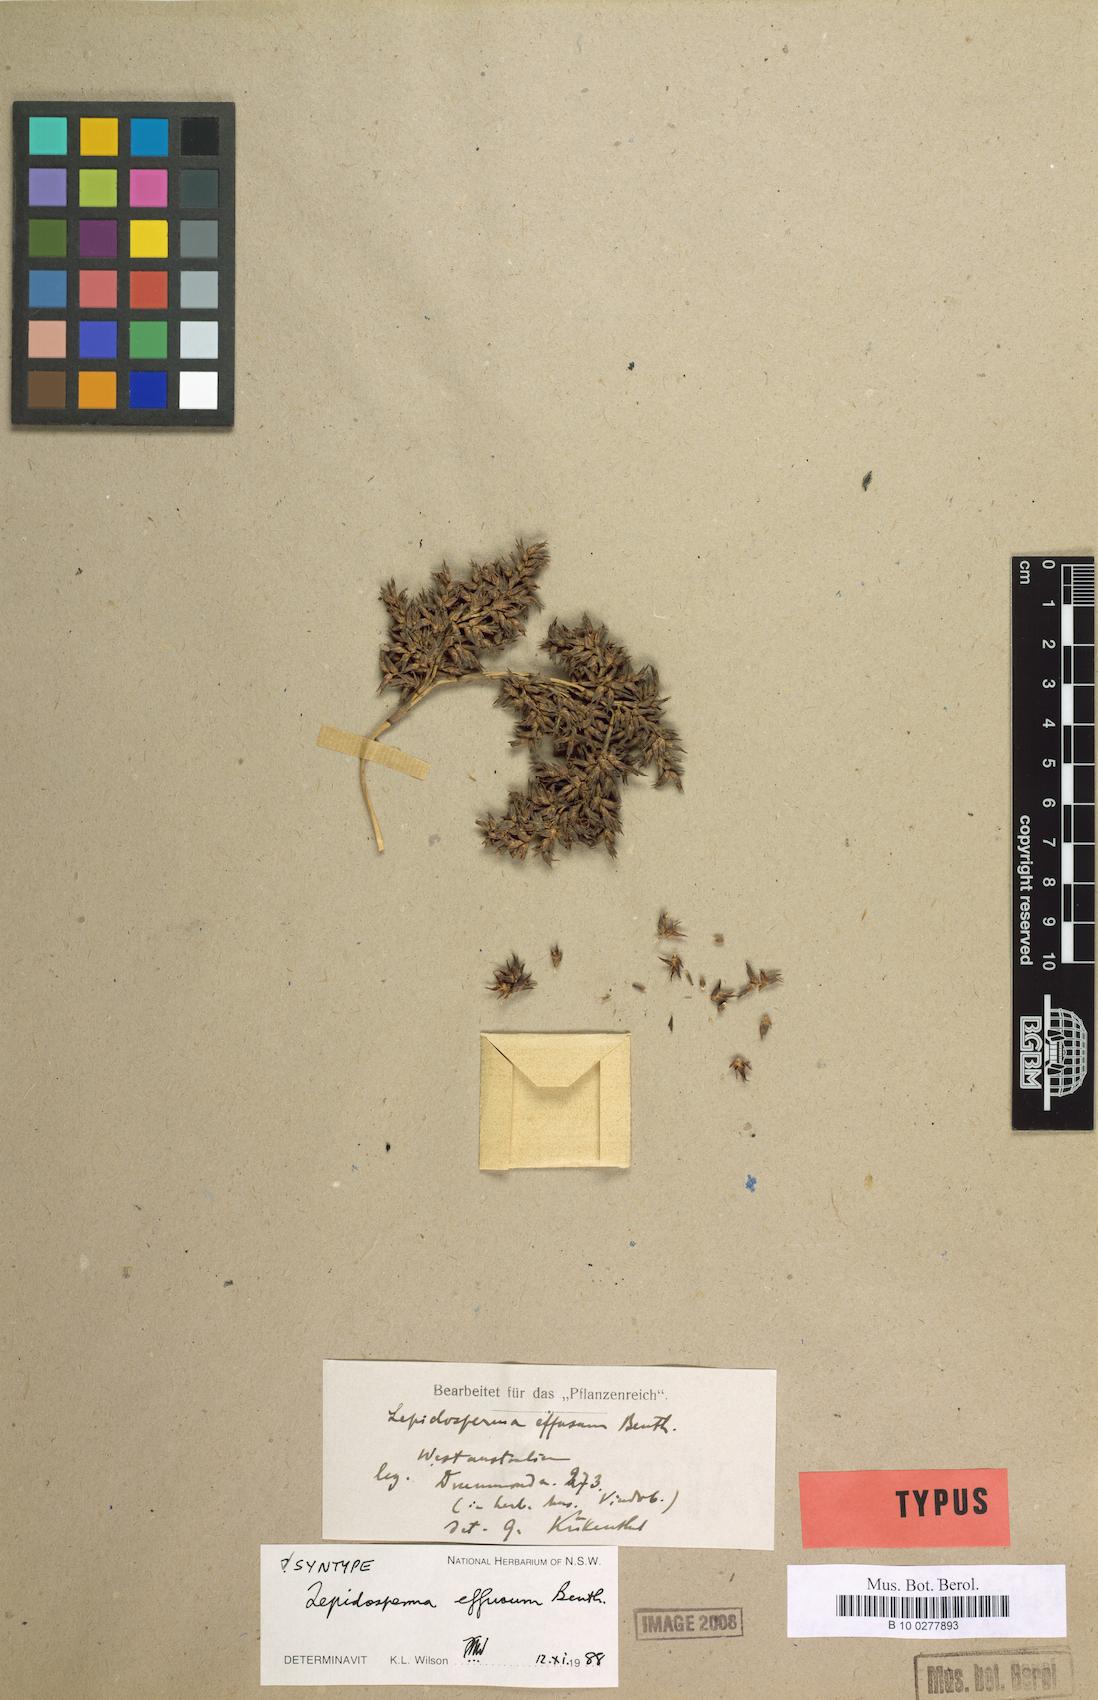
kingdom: Plantae
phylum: Tracheophyta
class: Liliopsida
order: Poales
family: Cyperaceae
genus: Lepidosperma
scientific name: Lepidosperma effusum
